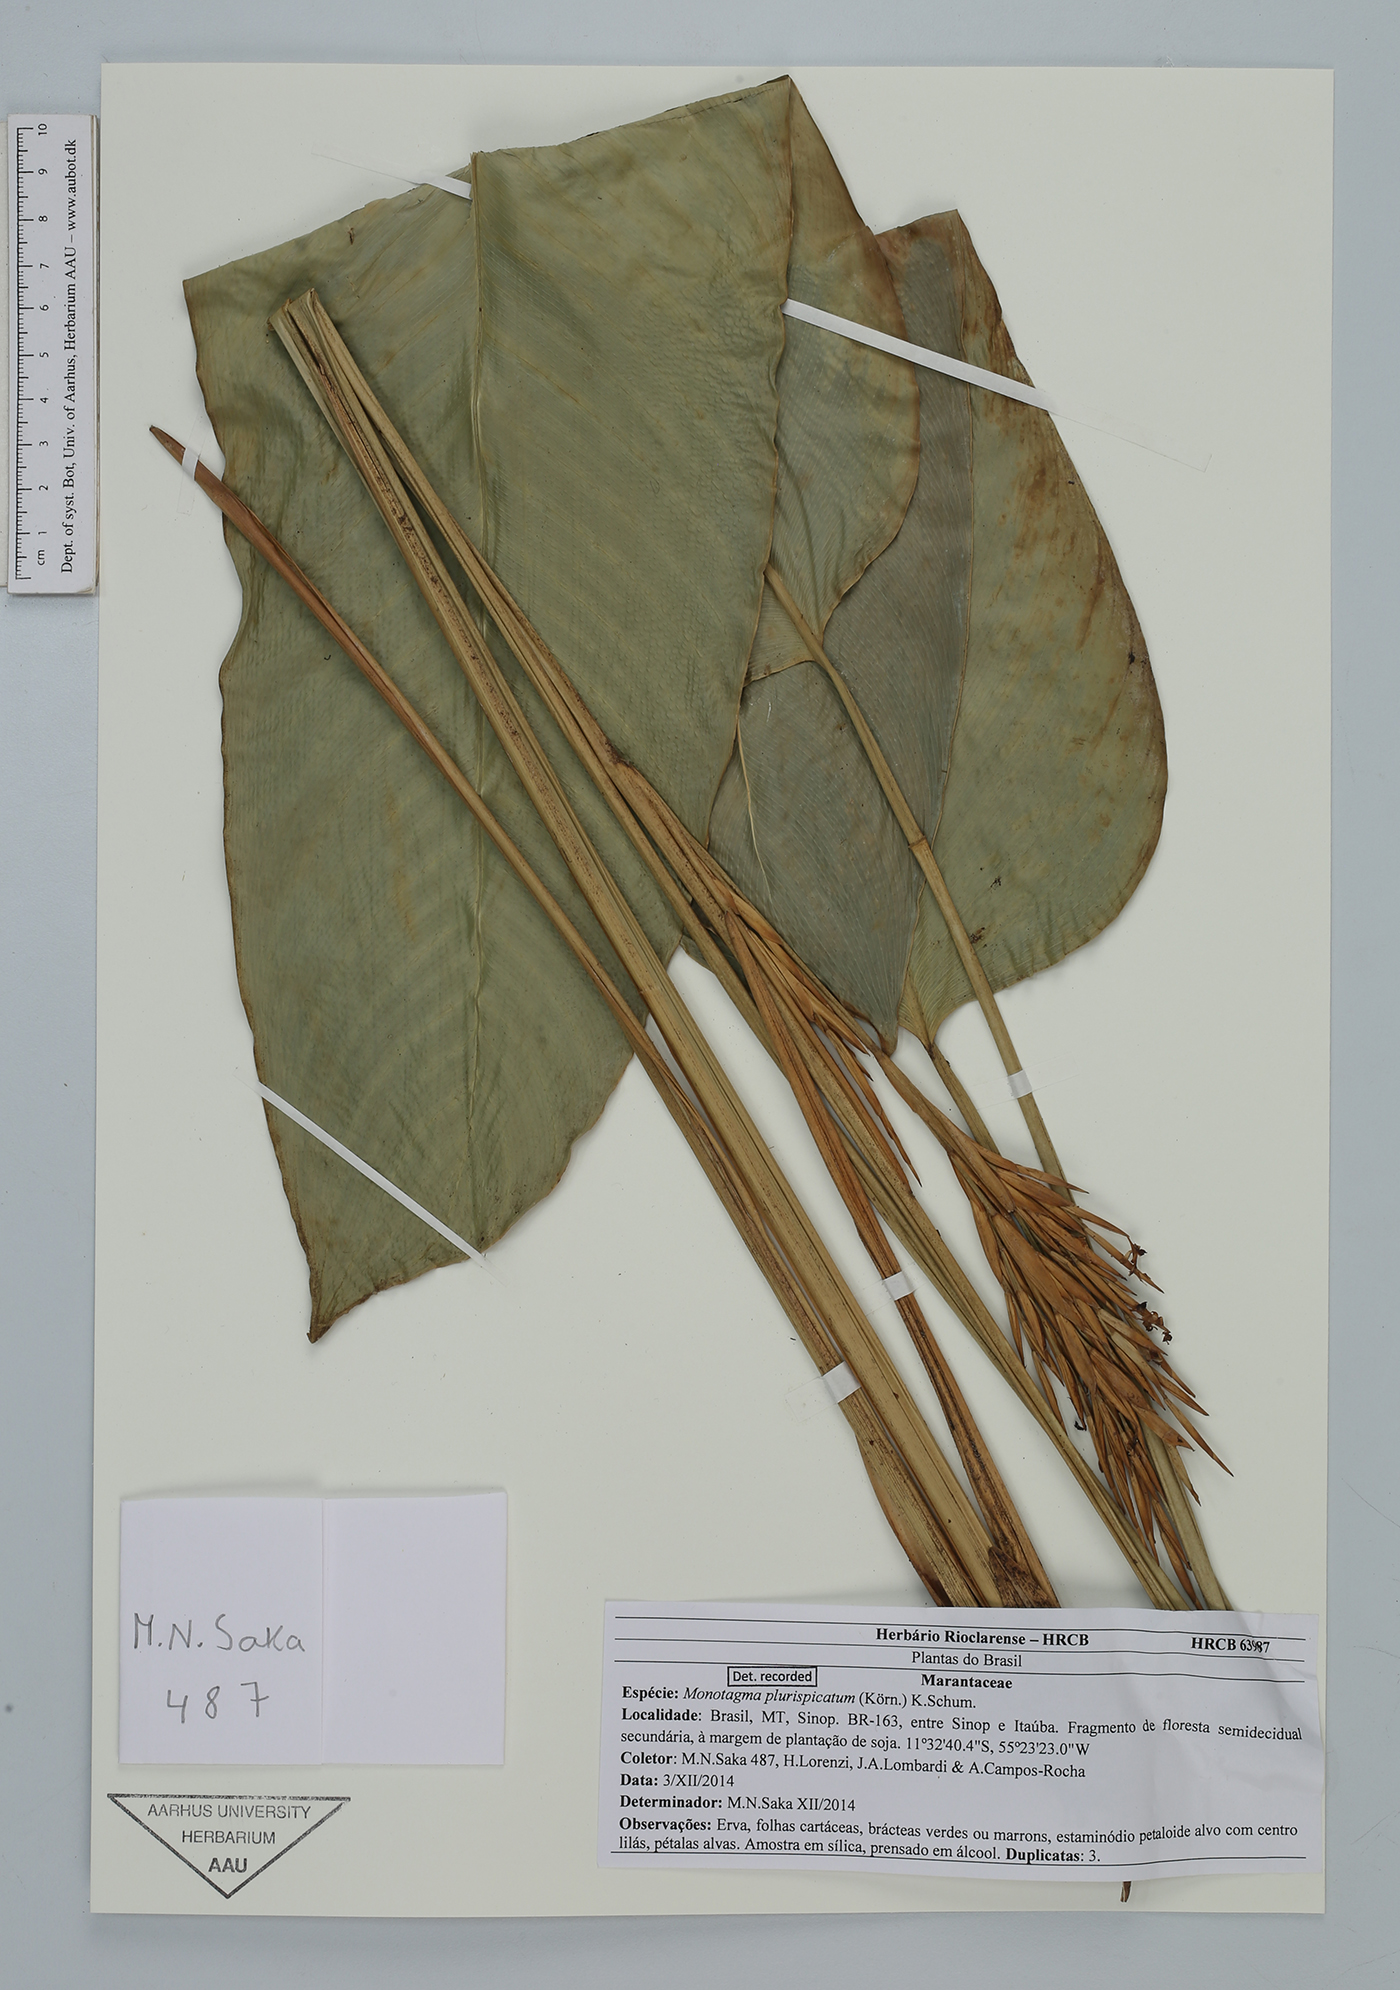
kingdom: Plantae
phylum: Tracheophyta
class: Liliopsida
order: Zingiberales
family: Marantaceae
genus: Monotagma
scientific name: Monotagma plurispicatum
